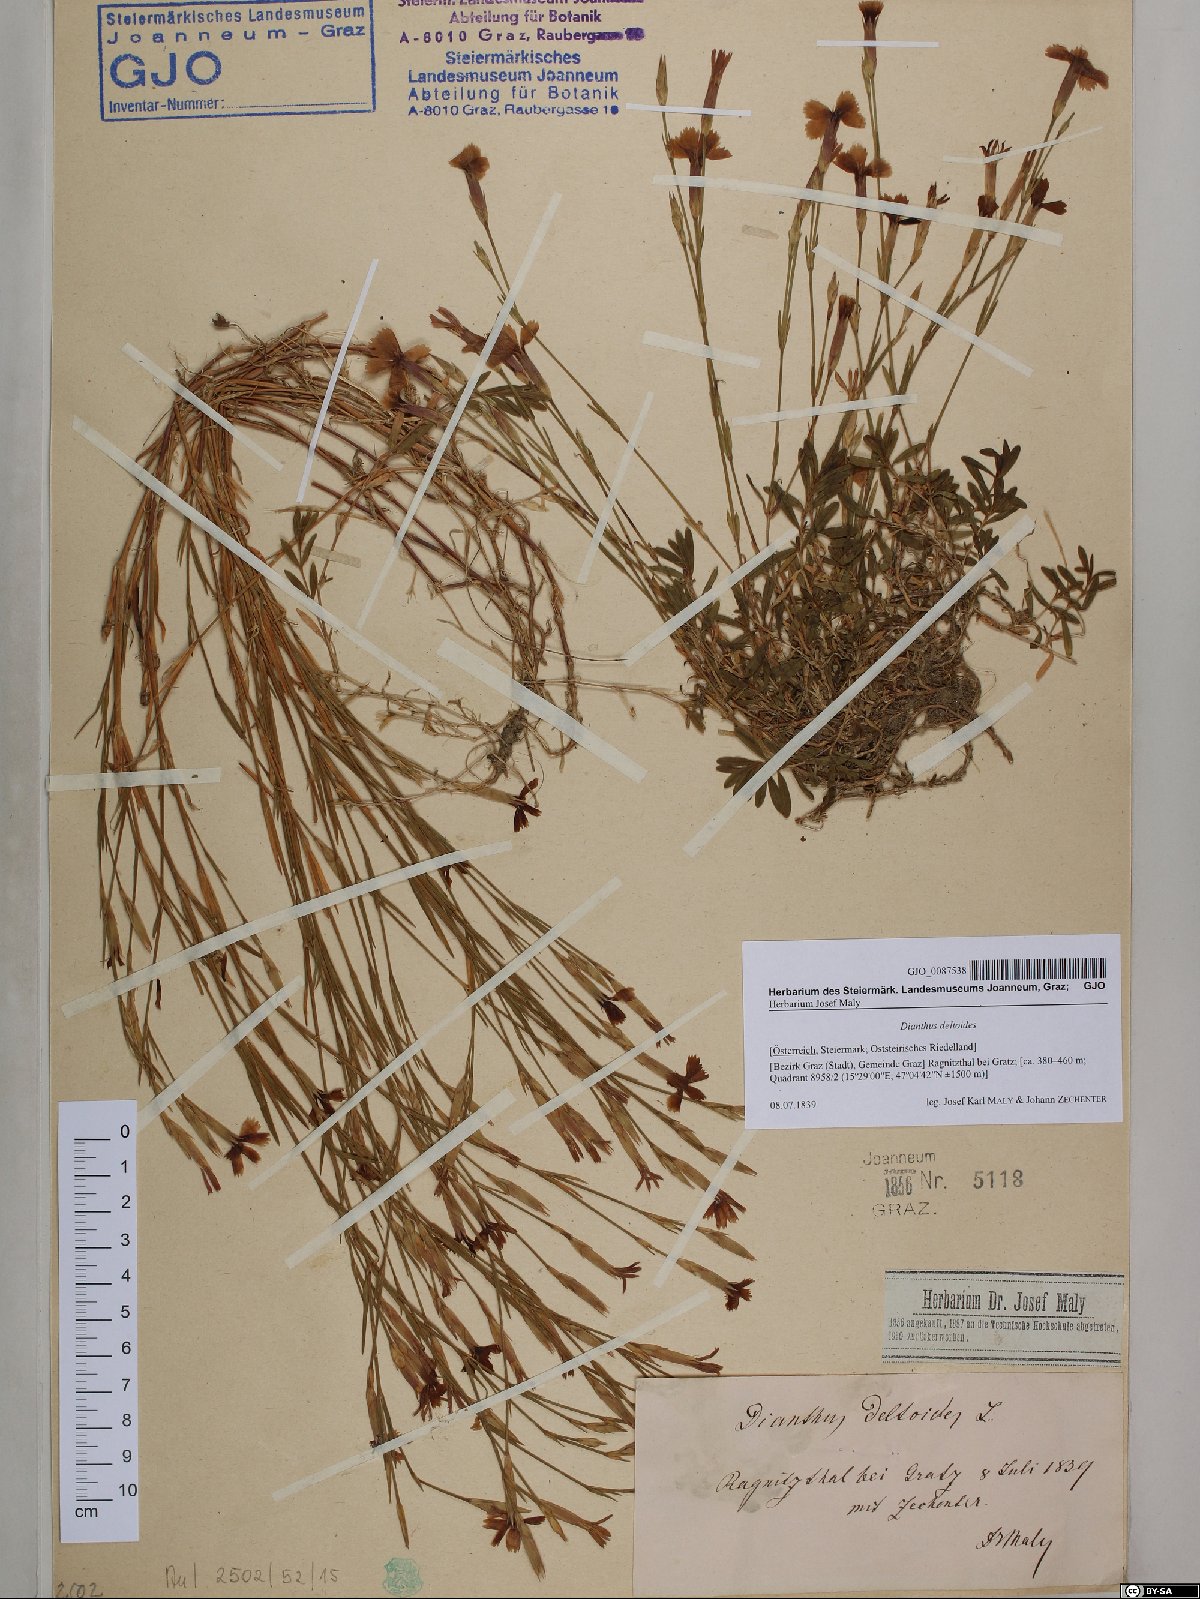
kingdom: Plantae
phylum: Tracheophyta
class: Magnoliopsida
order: Caryophyllales
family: Caryophyllaceae
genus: Dianthus
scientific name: Dianthus deltoides
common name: Maiden pink
